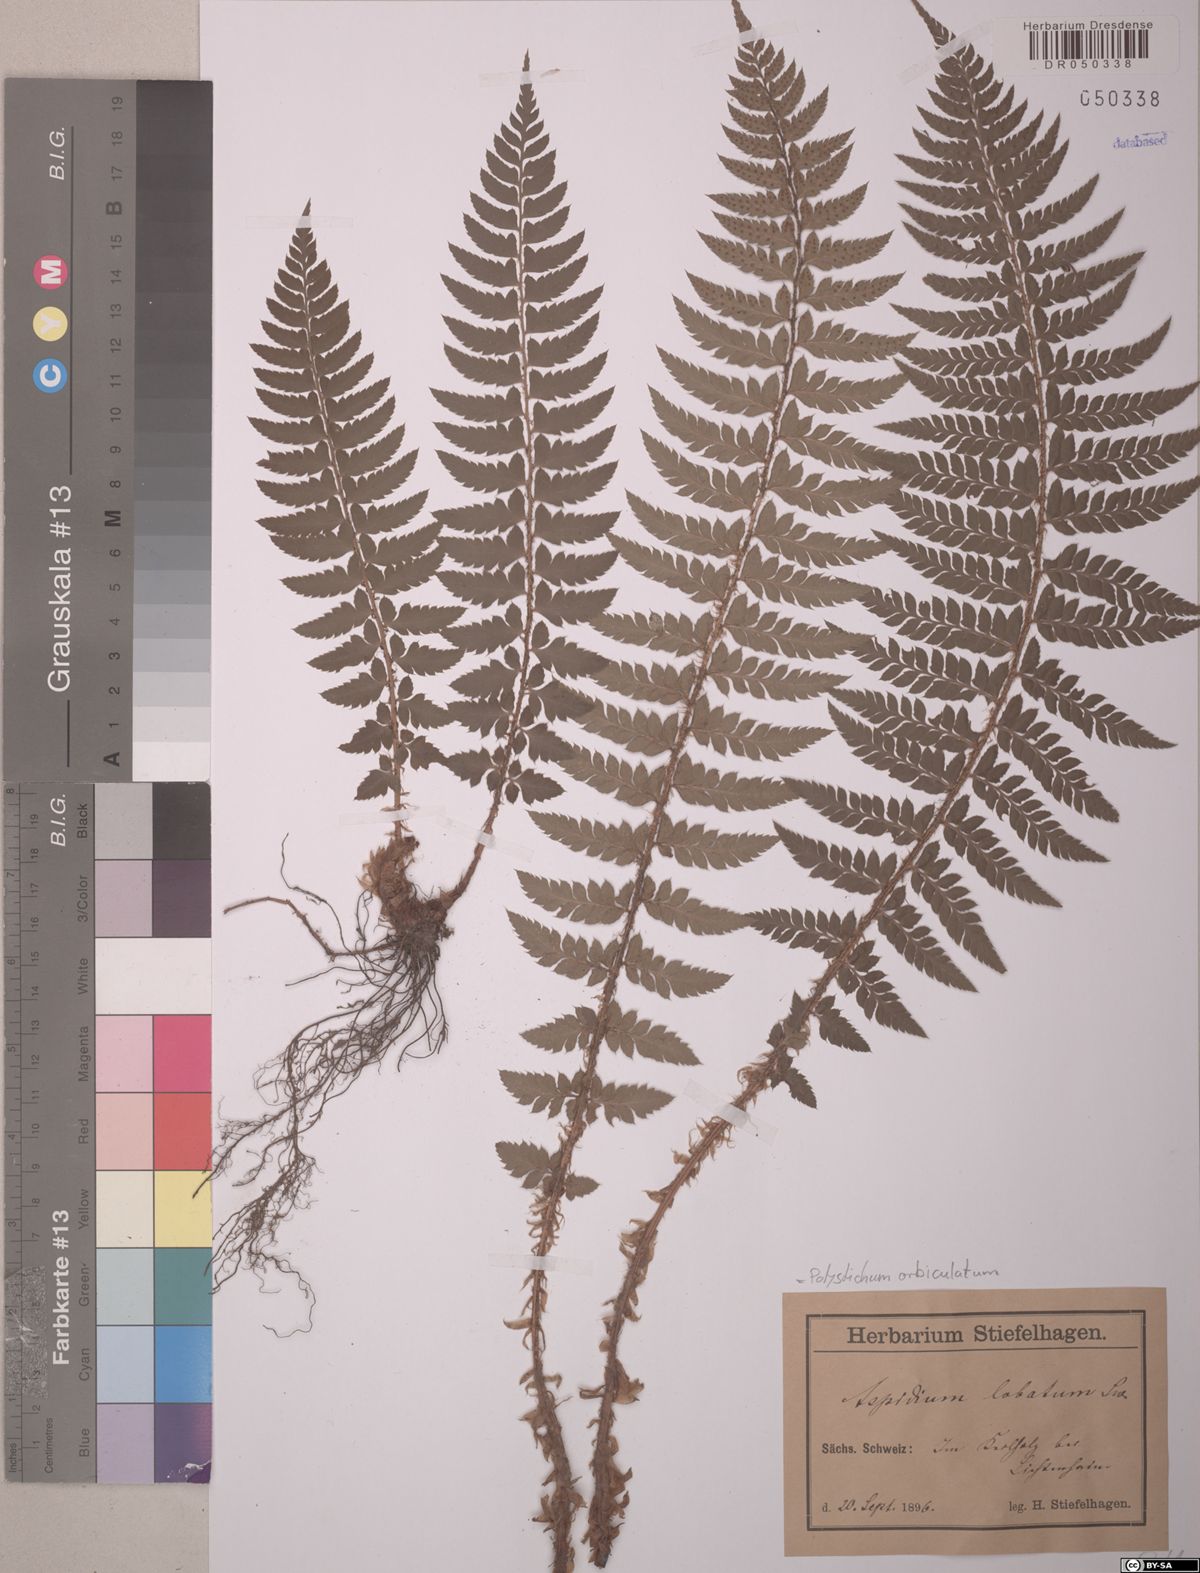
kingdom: Plantae
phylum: Tracheophyta
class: Polypodiopsida
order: Polypodiales
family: Dryopteridaceae
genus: Polystichum
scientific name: Polystichum aculeatum
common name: Hard shield-fern
